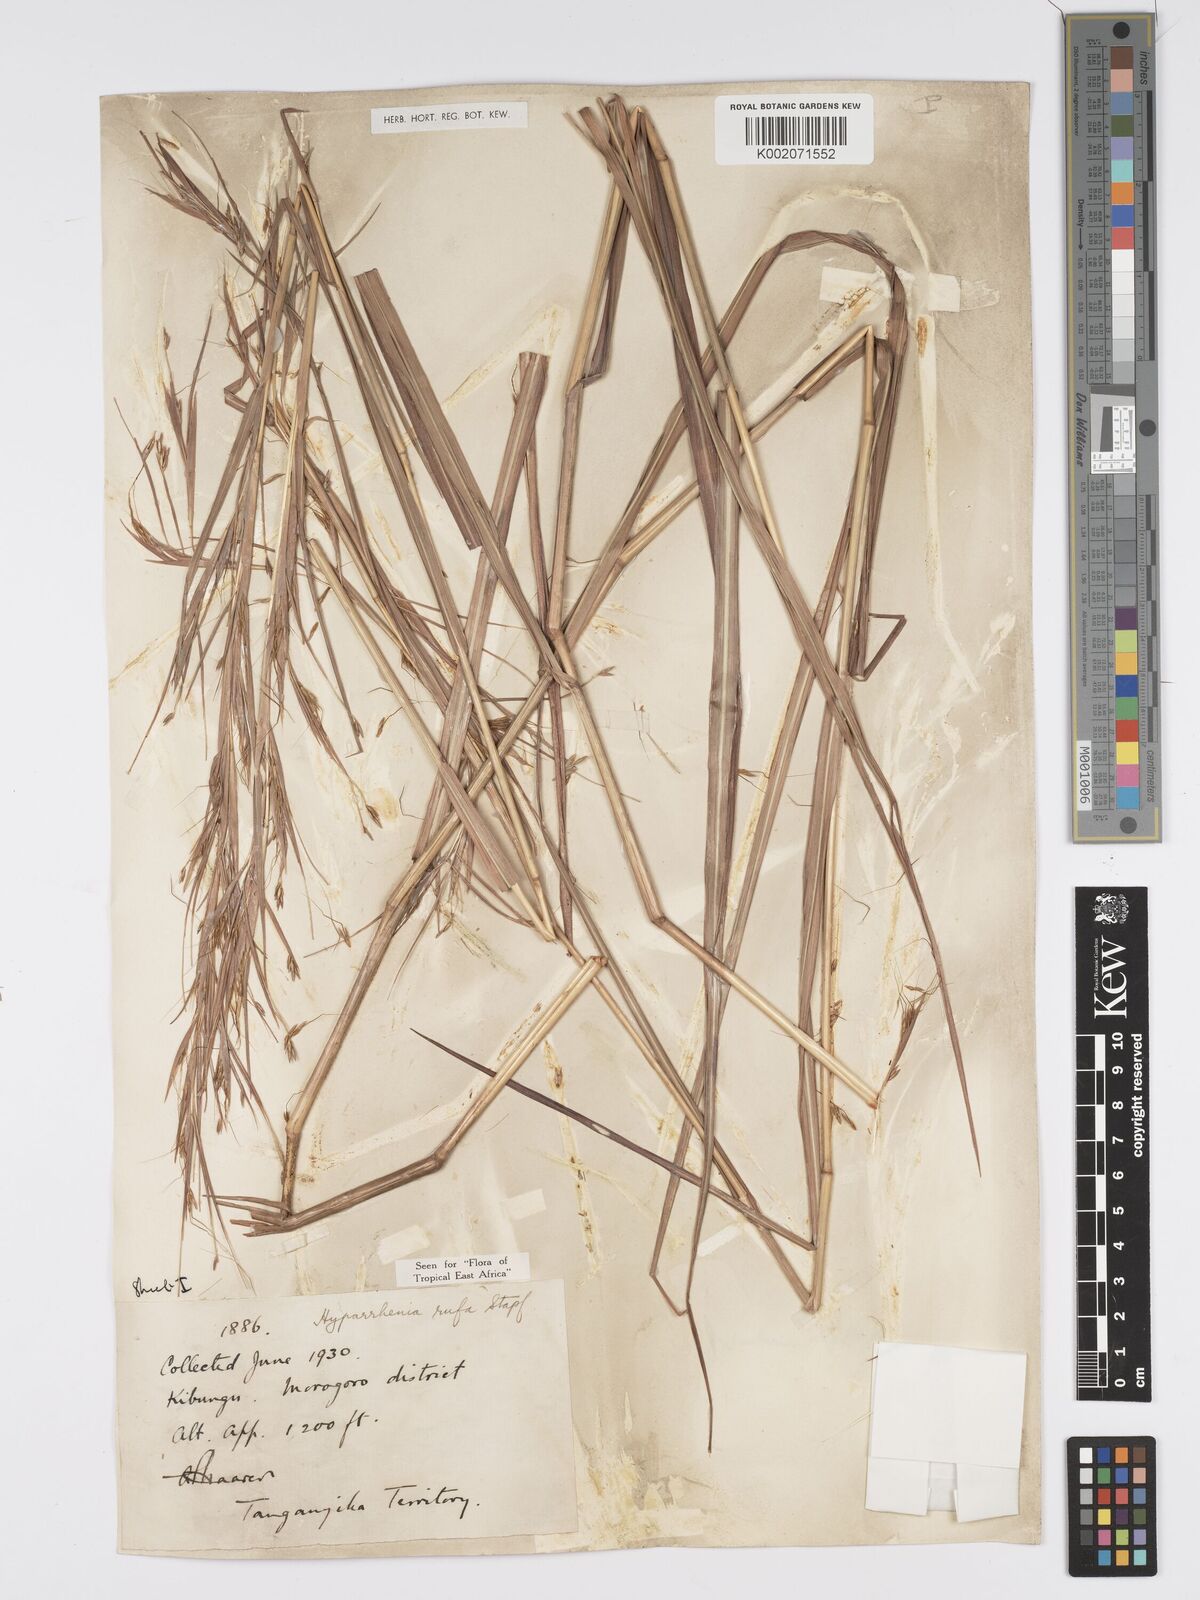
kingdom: Plantae
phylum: Tracheophyta
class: Liliopsida
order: Poales
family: Poaceae
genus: Hyparrhenia
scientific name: Hyparrhenia rufa
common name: Jaraguagrass
